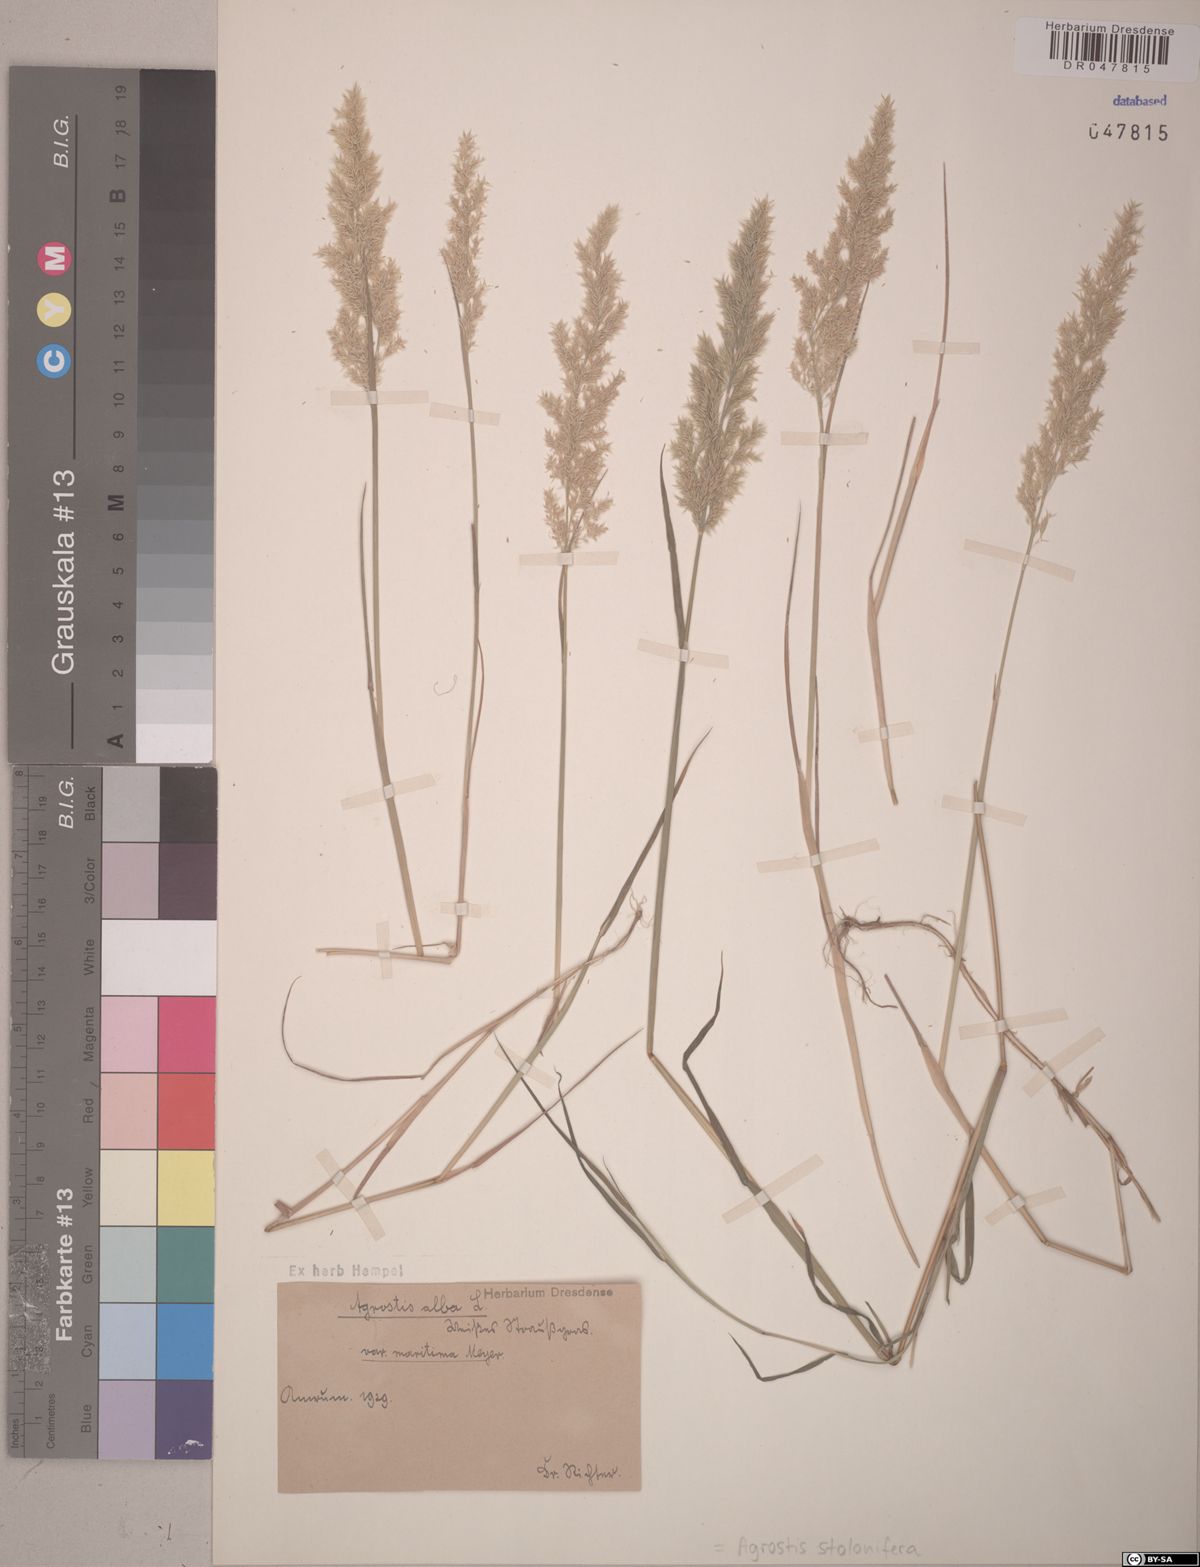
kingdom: Plantae
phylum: Tracheophyta
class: Liliopsida
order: Poales
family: Poaceae
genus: Agrostis
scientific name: Agrostis stolonifera
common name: Creeping bentgrass
